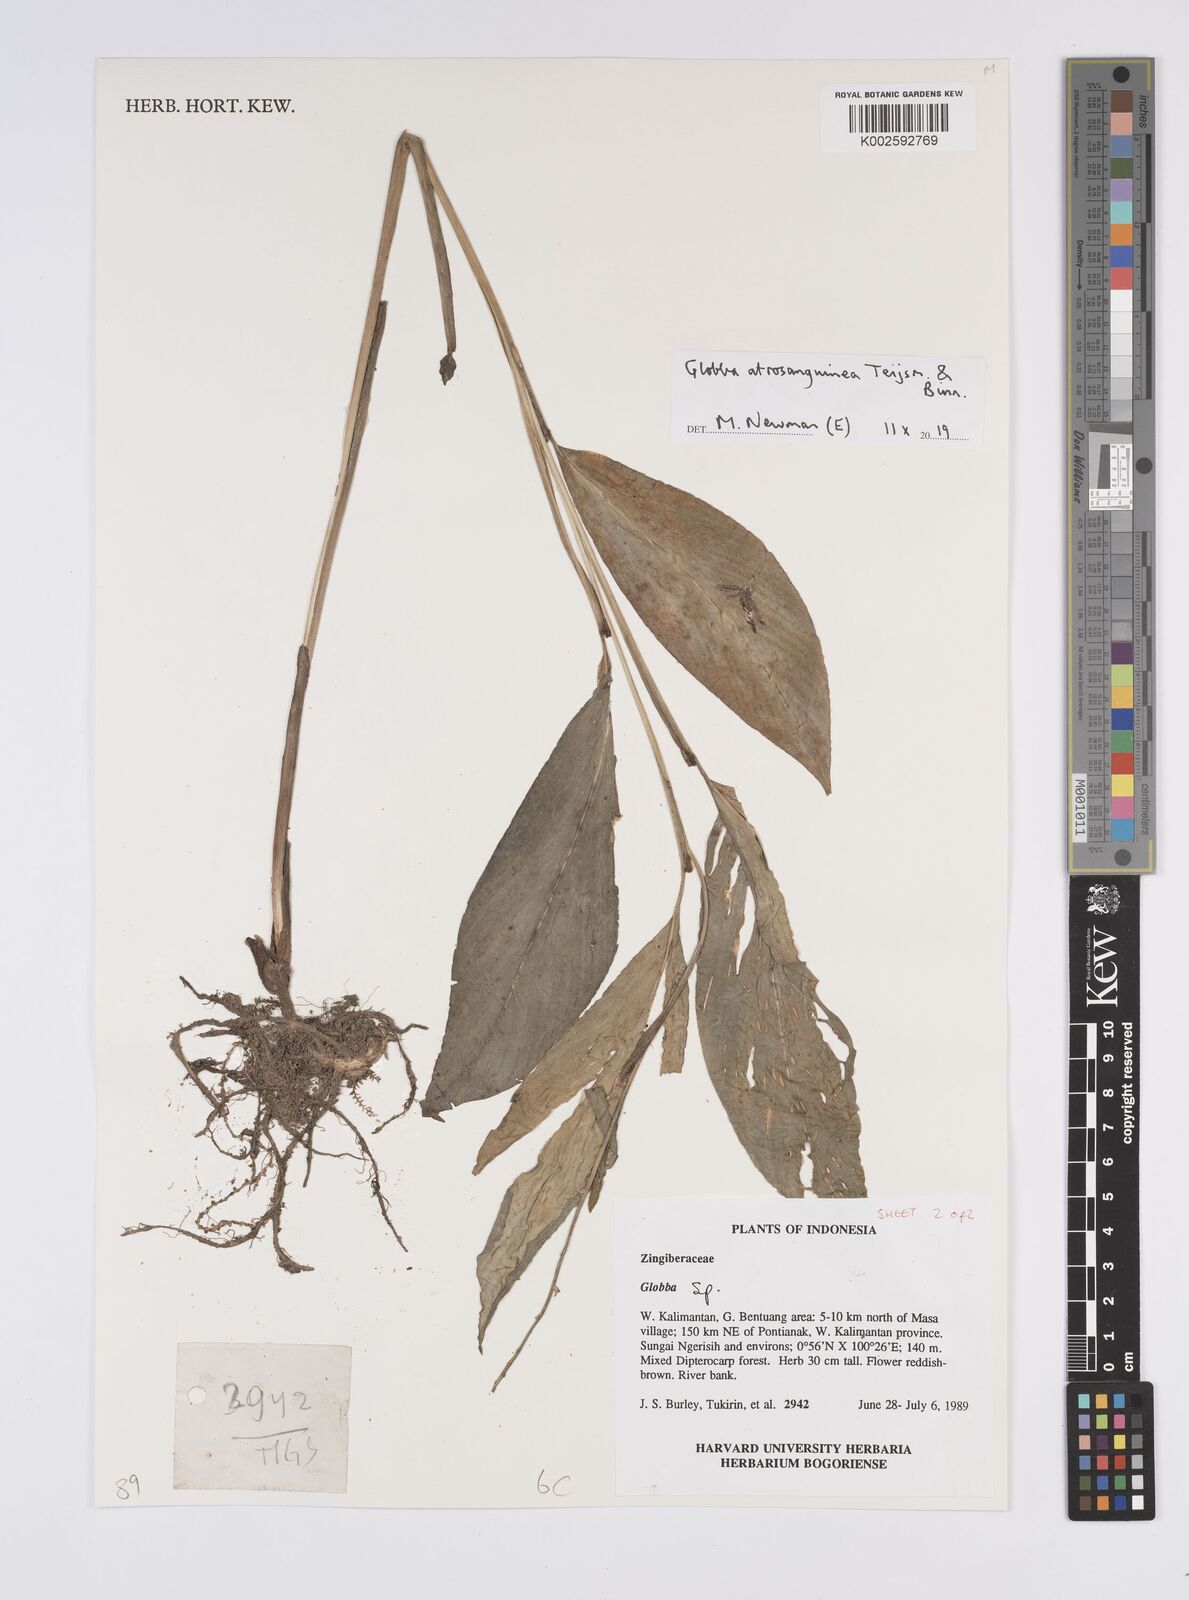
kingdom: Plantae
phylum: Tracheophyta
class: Liliopsida
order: Zingiberales
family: Zingiberaceae
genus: Globba
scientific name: Globba atrosanguinea
